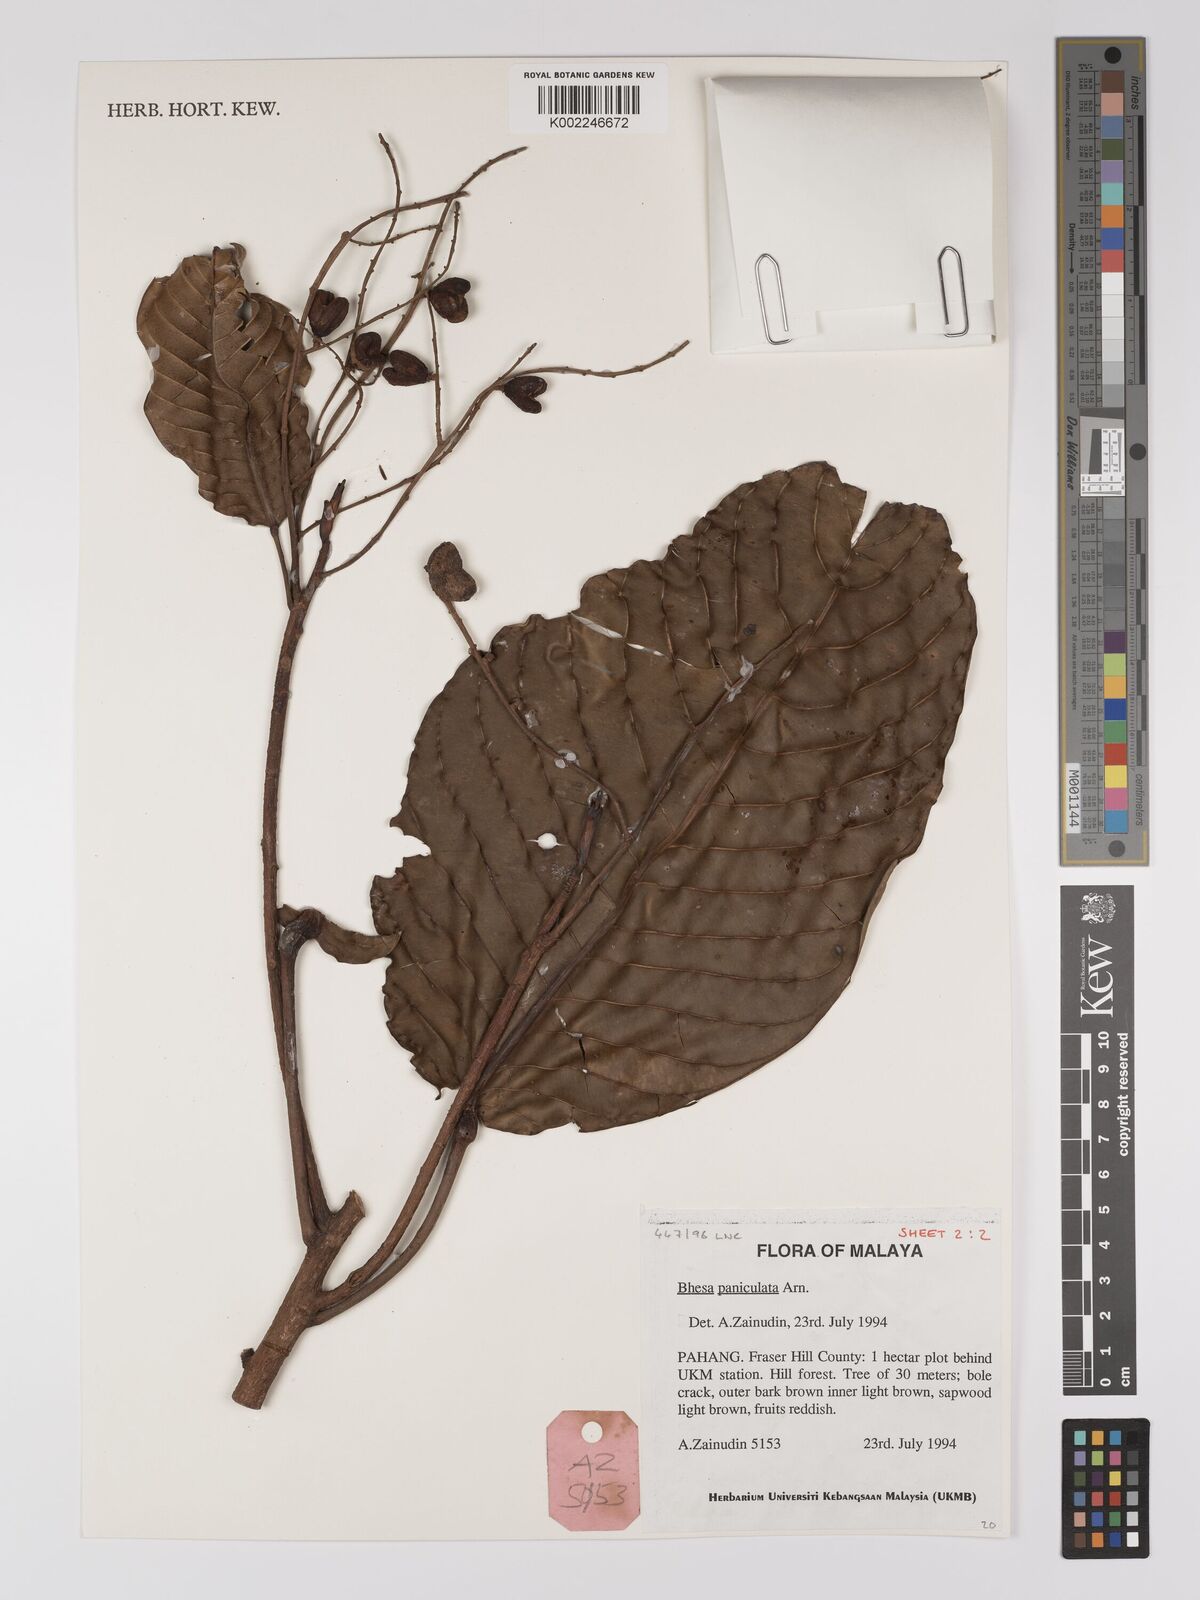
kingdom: Plantae
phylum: Tracheophyta
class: Magnoliopsida
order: Malpighiales
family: Centroplacaceae
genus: Bhesa
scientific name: Bhesa paniculata
